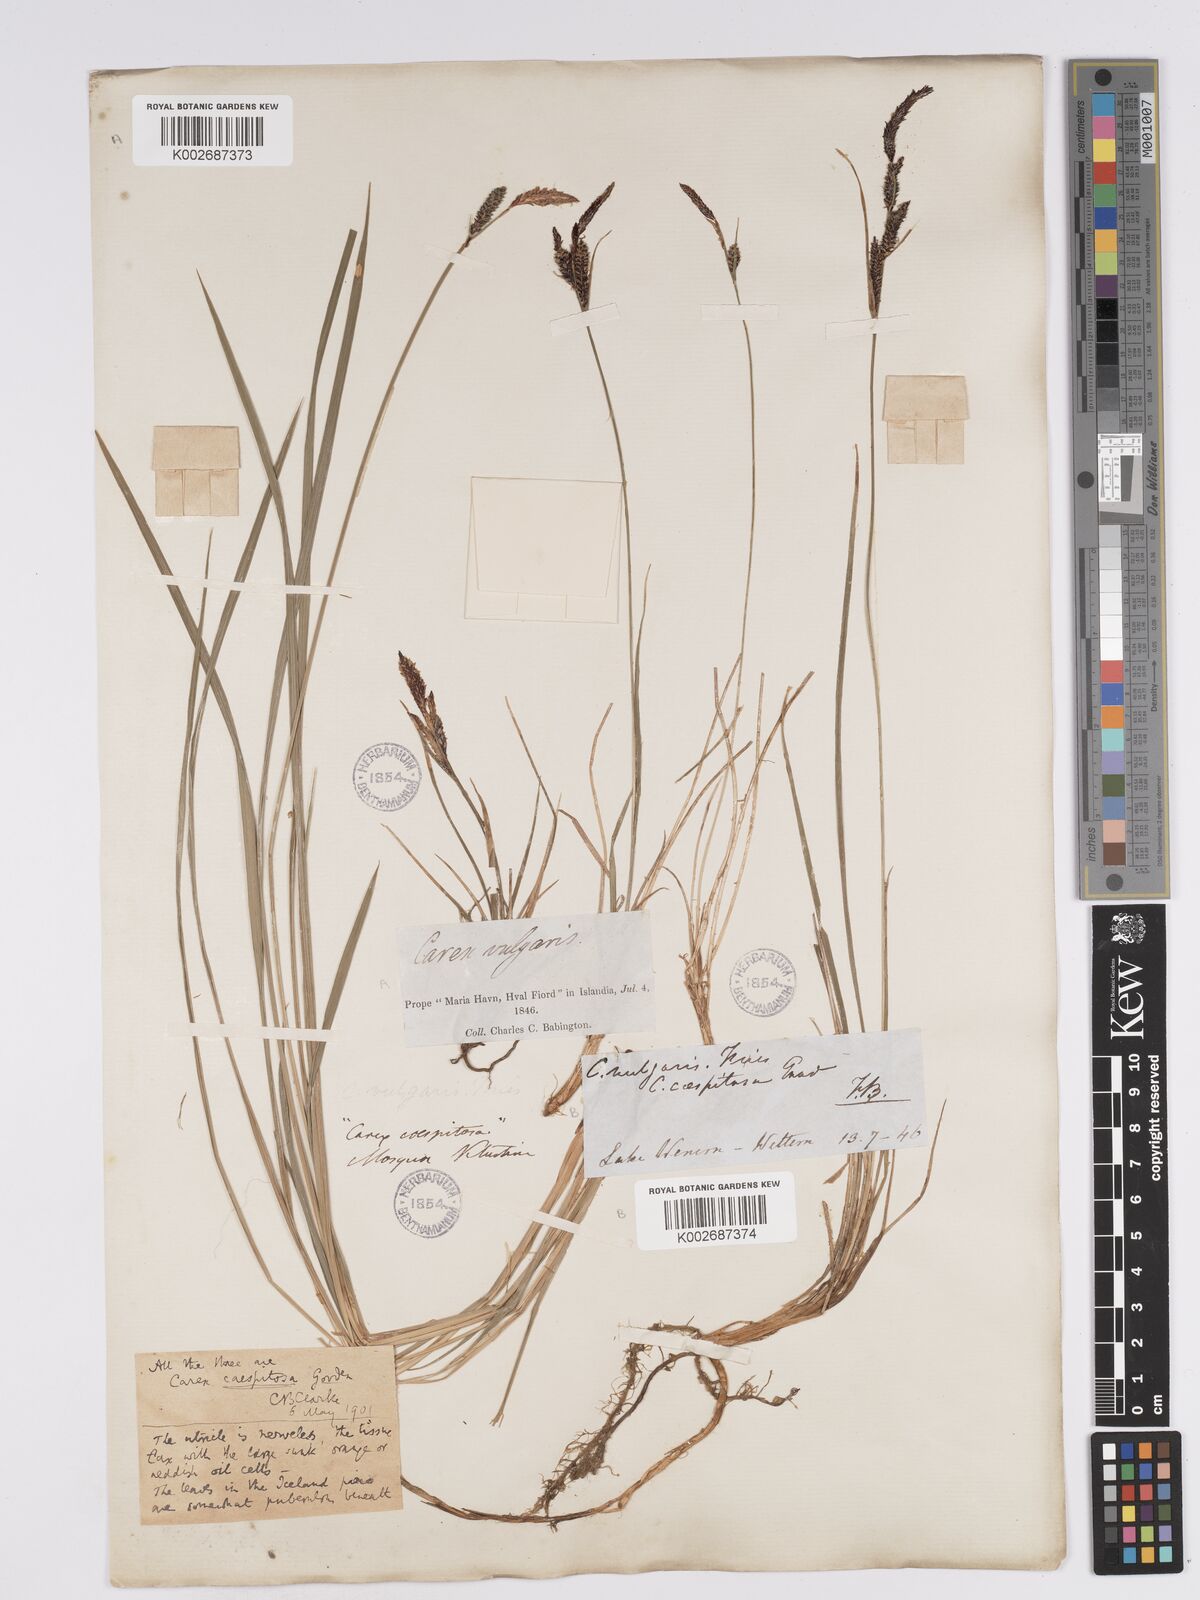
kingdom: Plantae
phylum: Tracheophyta
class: Liliopsida
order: Poales
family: Cyperaceae
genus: Carex
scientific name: Carex nigra
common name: Common sedge
